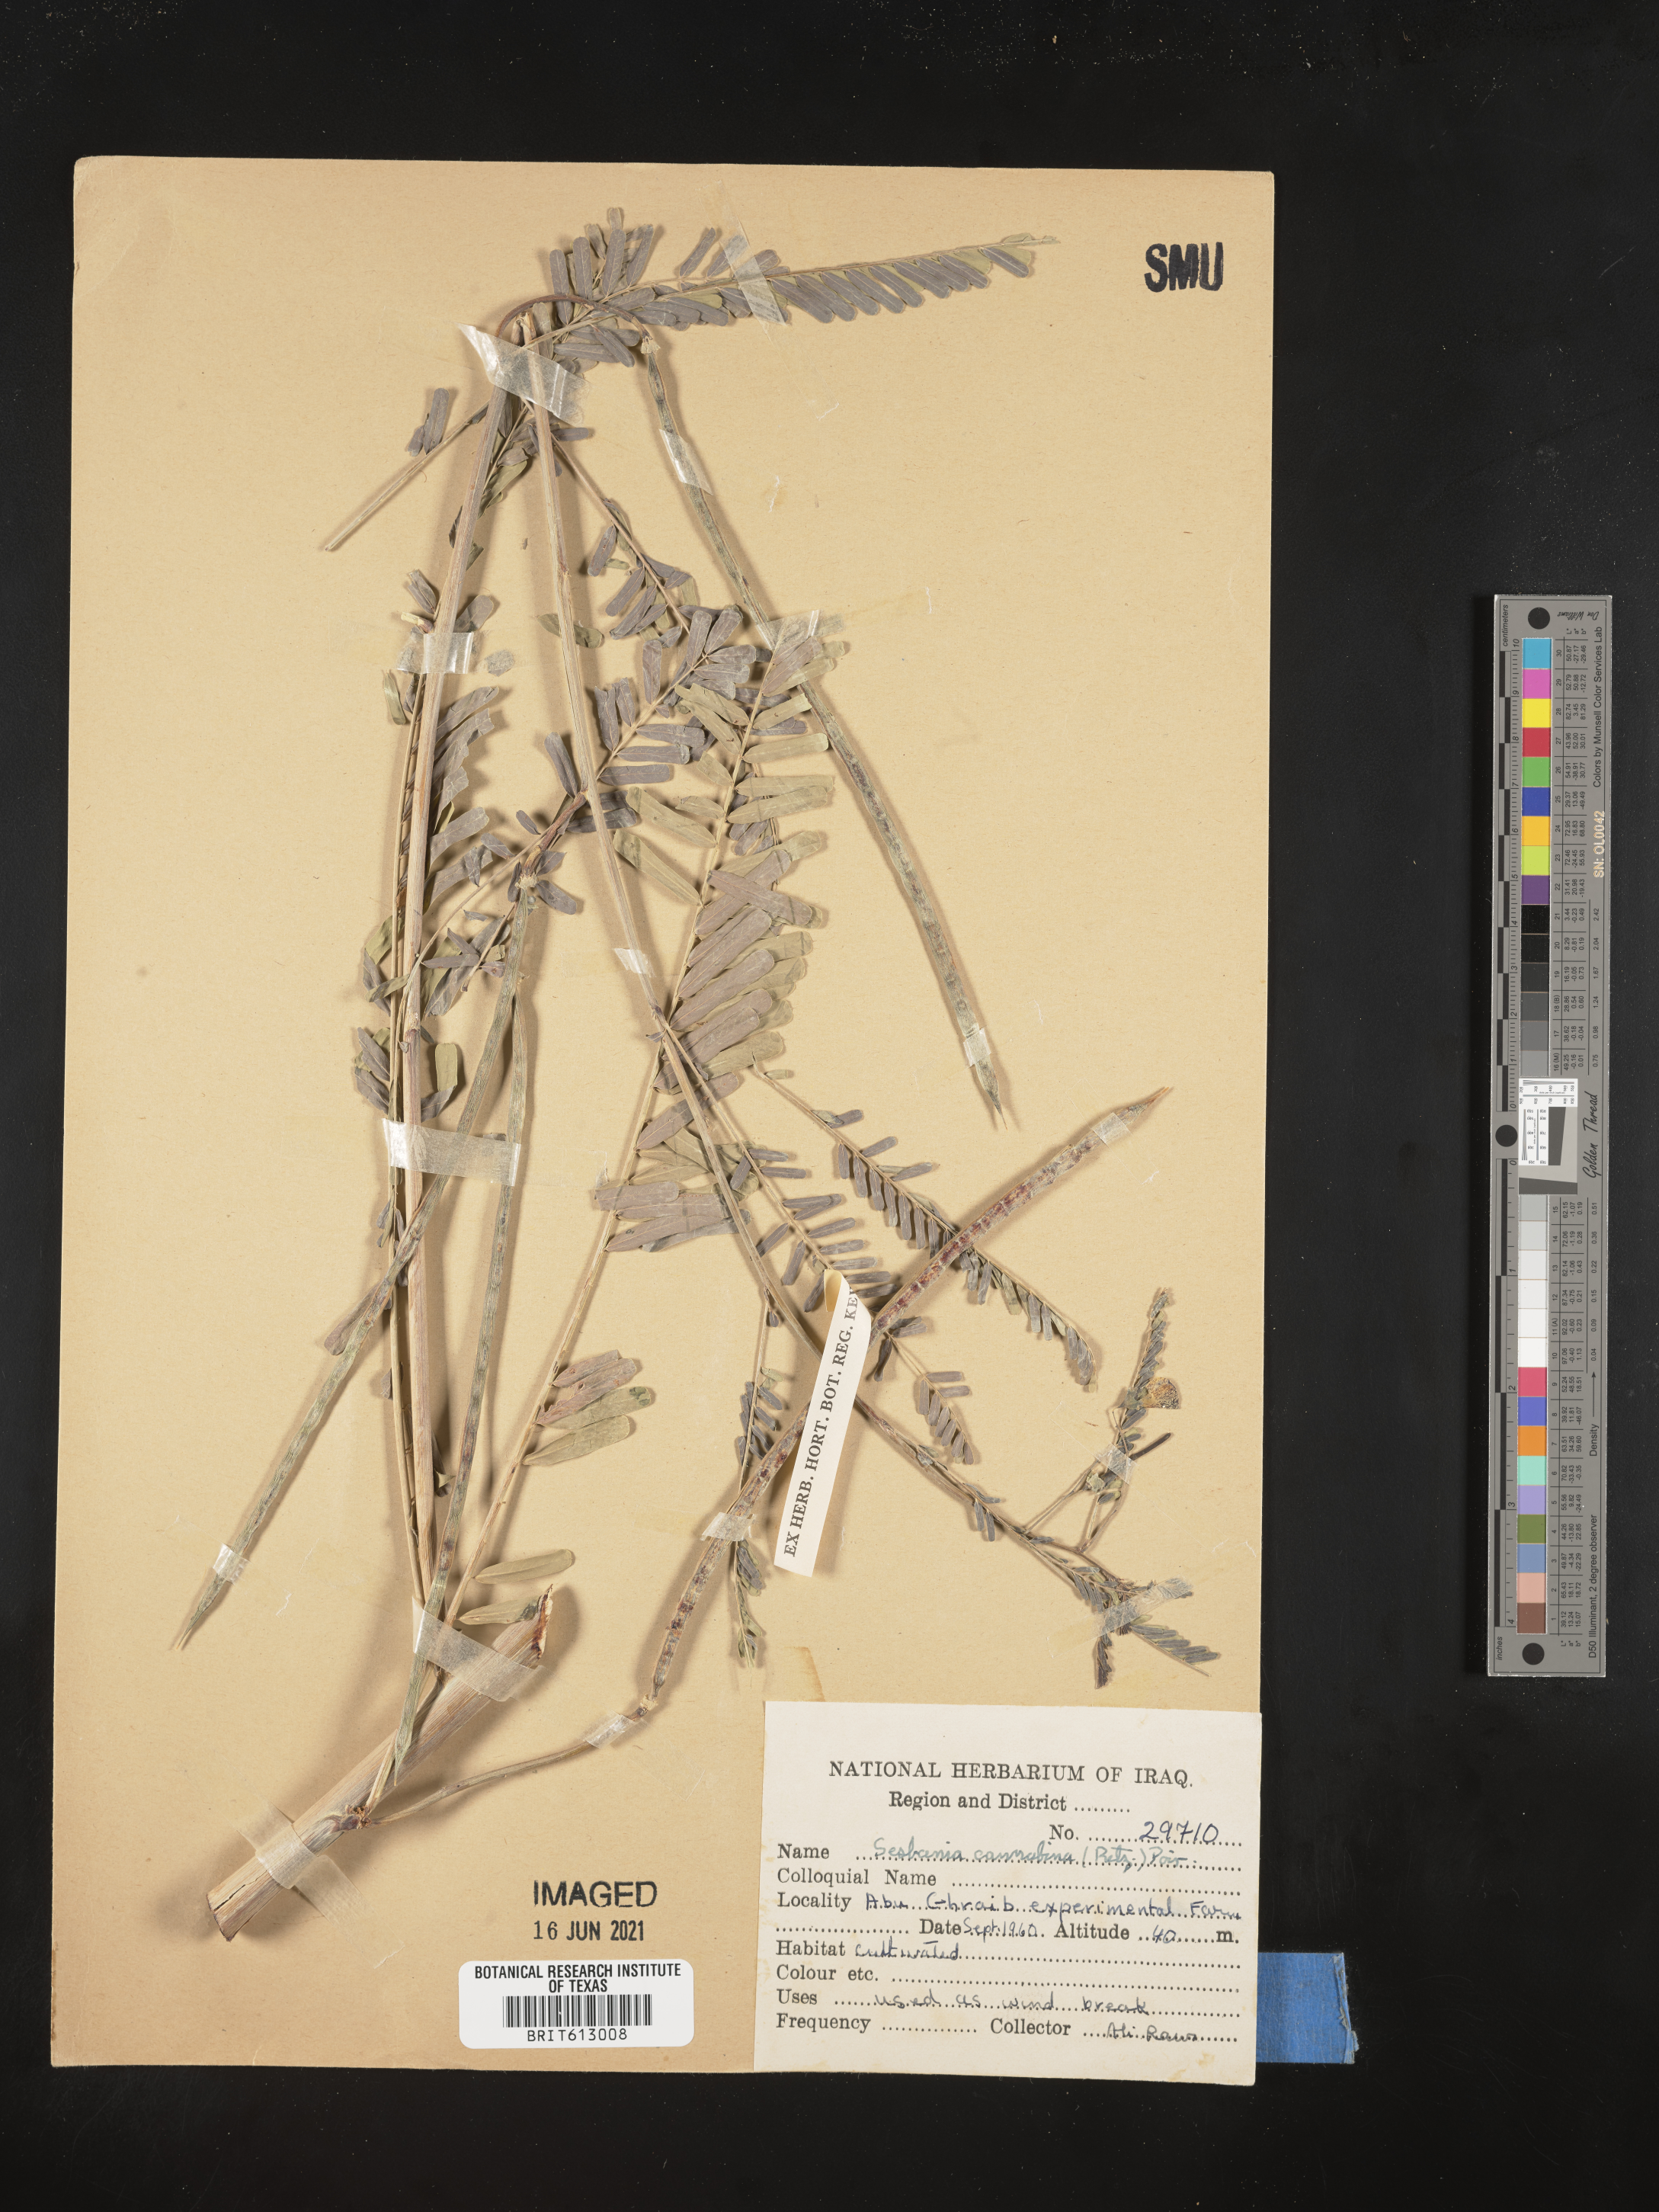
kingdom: Plantae
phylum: Tracheophyta
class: Magnoliopsida
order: Fabales
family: Fabaceae
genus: Sesbania
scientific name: Sesbania cannabina
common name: Canicha
